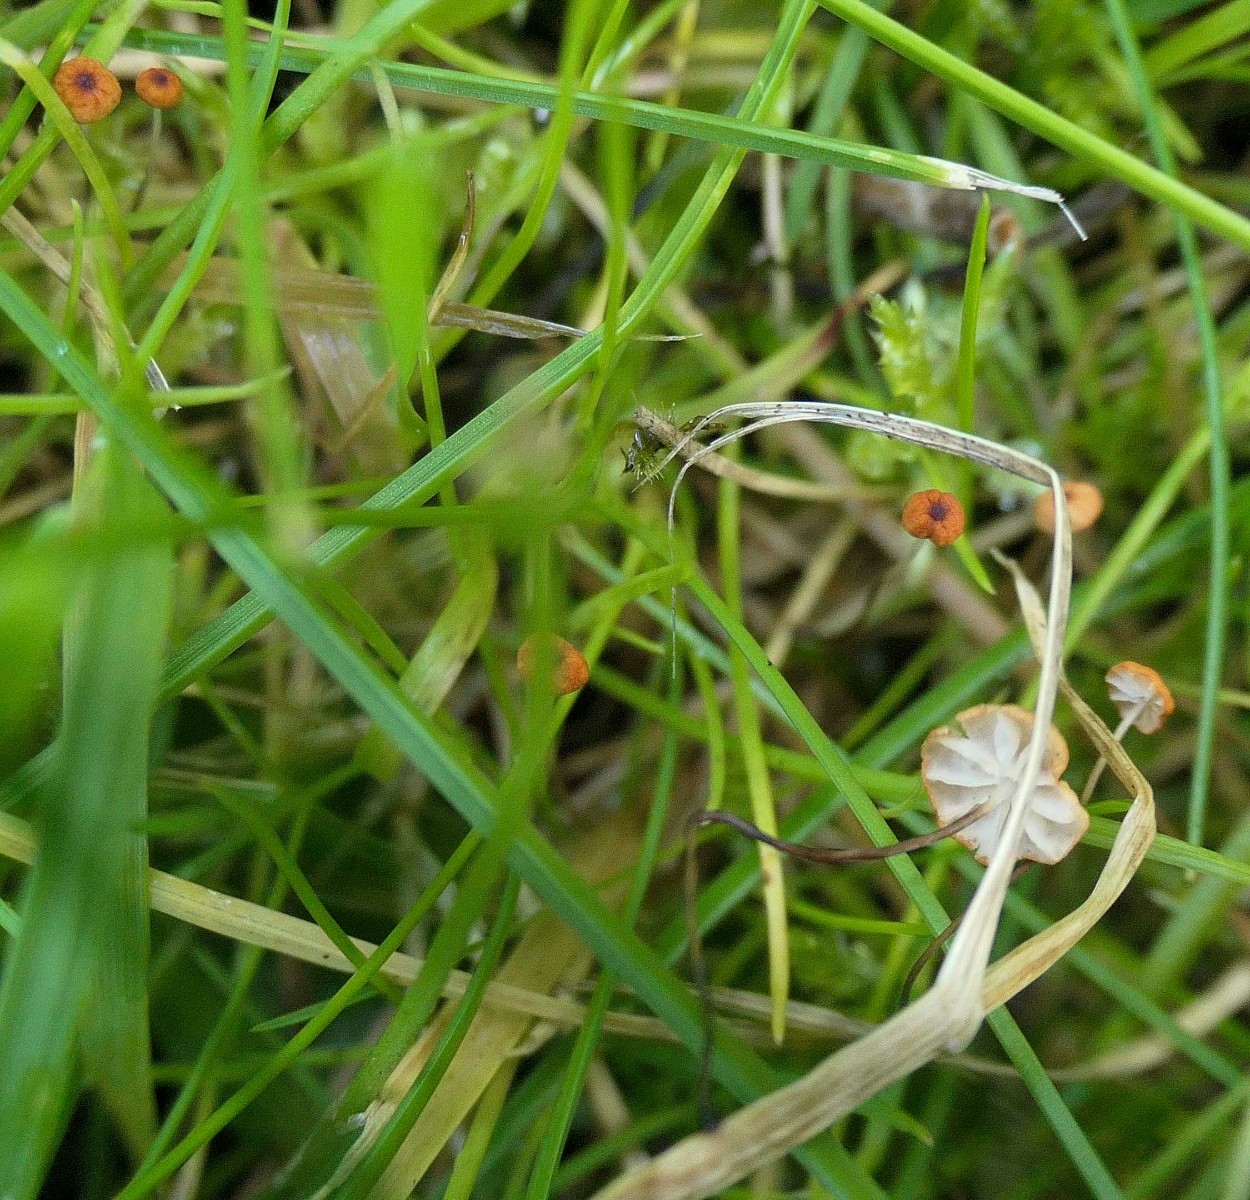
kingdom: Fungi
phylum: Basidiomycota
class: Agaricomycetes
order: Agaricales
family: Marasmiaceae
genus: Marasmius
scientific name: Marasmius curreyi
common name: teglrød bruskhat
